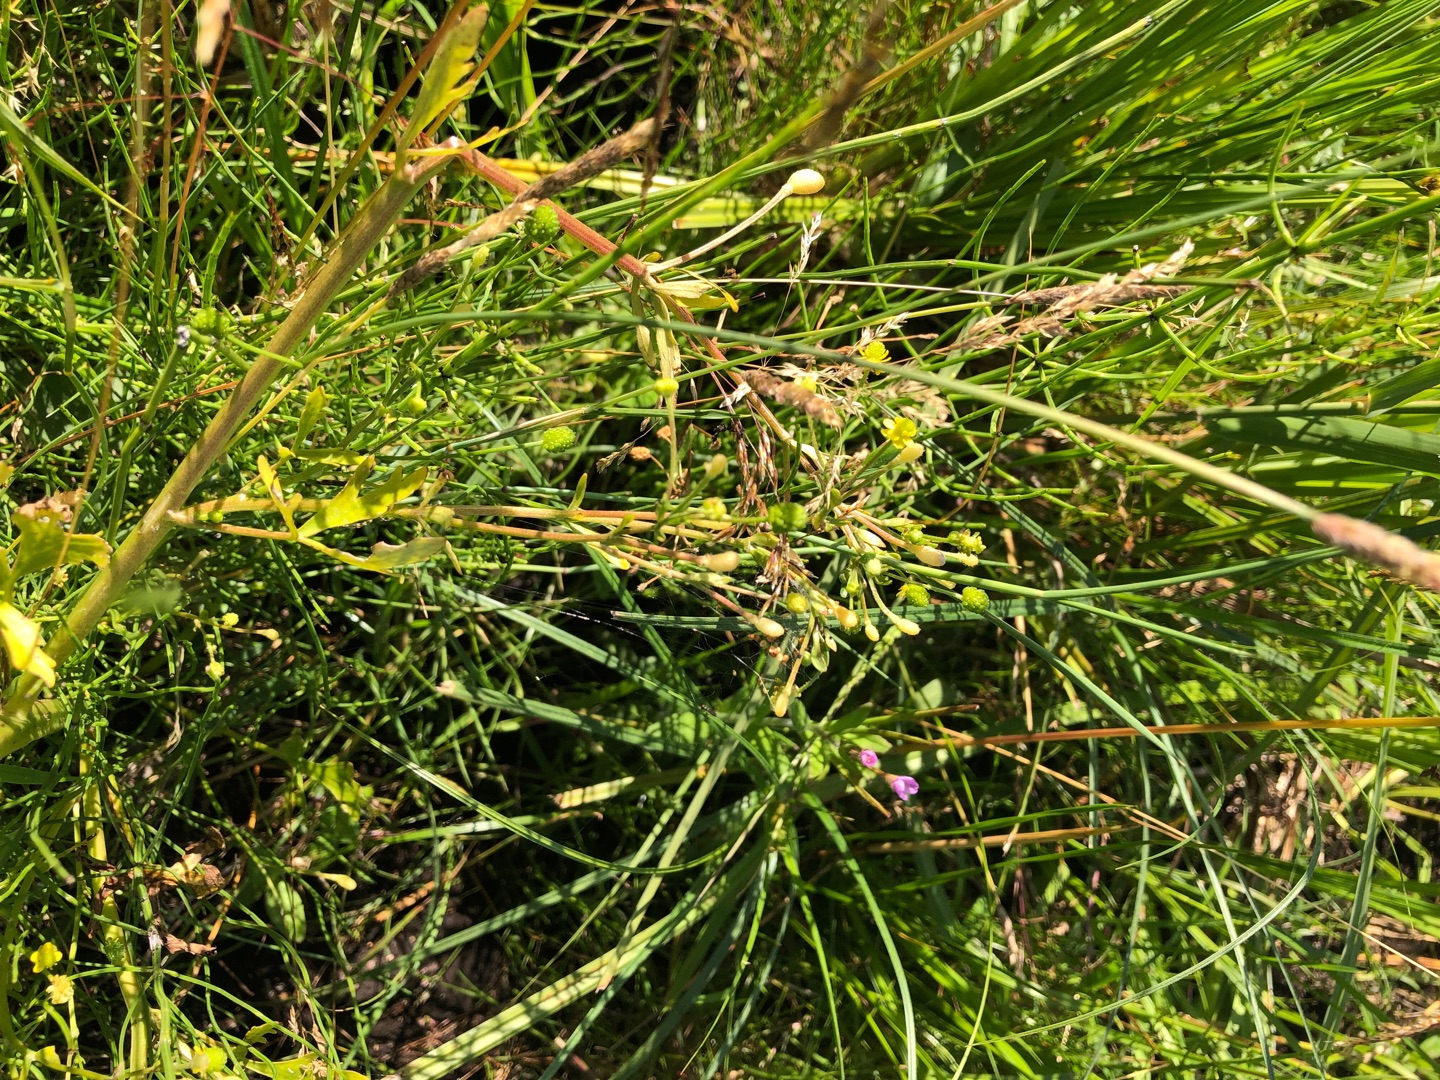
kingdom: Plantae
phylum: Tracheophyta
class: Magnoliopsida
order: Ranunculales
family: Ranunculaceae
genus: Ranunculus
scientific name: Ranunculus sceleratus
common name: Tigger-ranunkel
